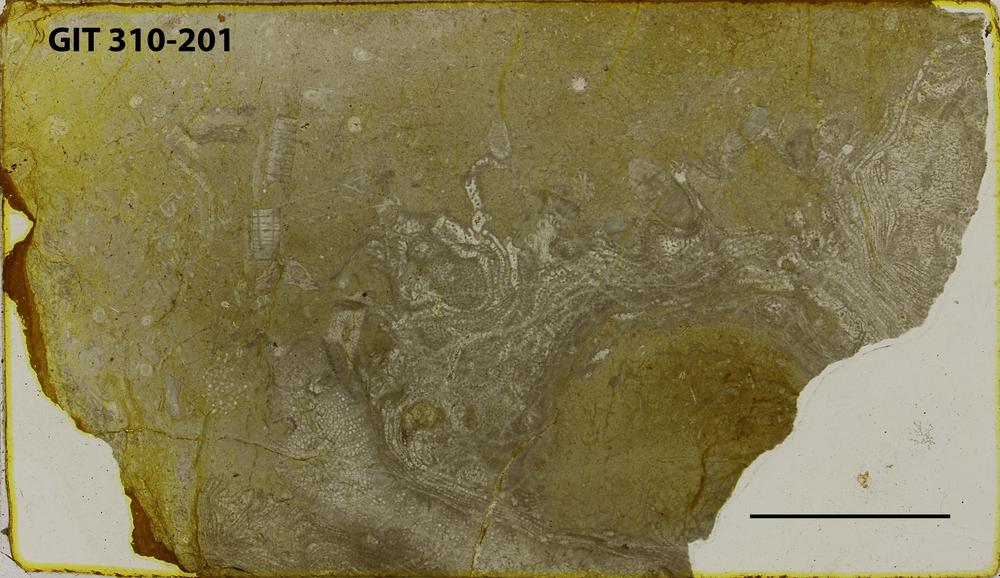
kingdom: Animalia
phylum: Porifera
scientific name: Porifera
